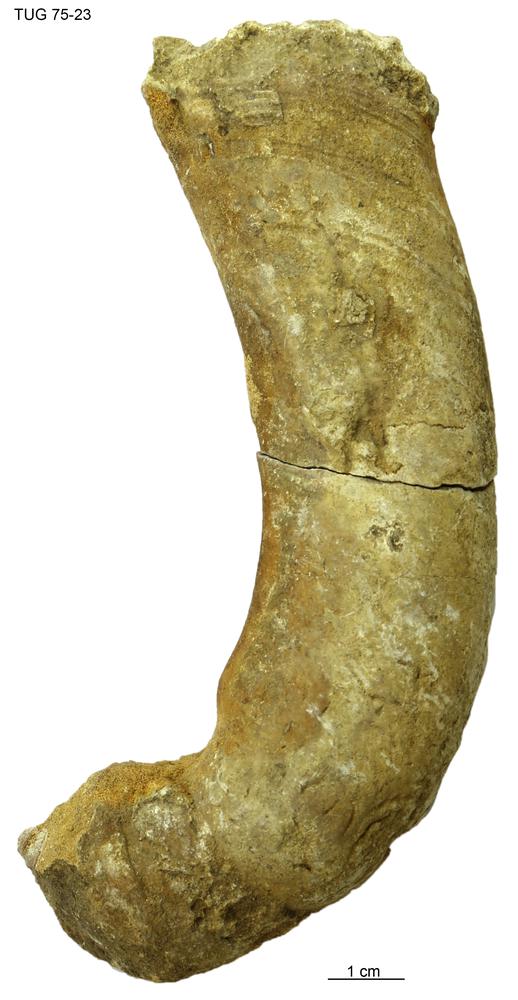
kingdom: Animalia
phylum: Mollusca
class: Cephalopoda
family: Trocholitidae
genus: Schroederoceras
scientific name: Schroederoceras
